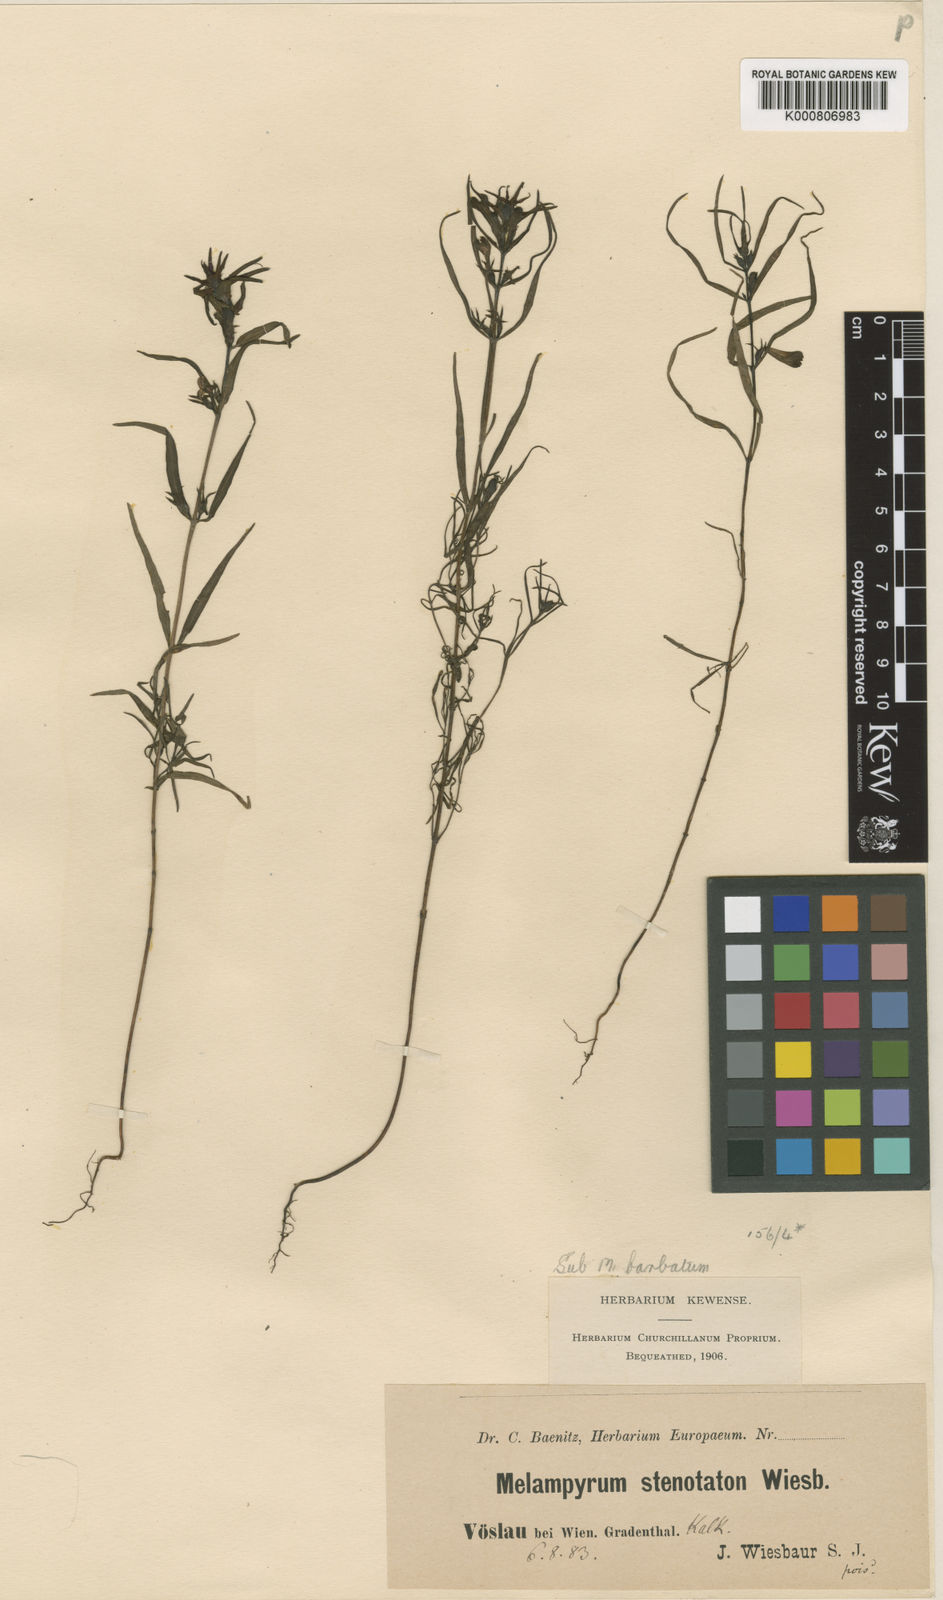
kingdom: Plantae
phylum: Tracheophyta
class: Magnoliopsida
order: Lamiales
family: Orobanchaceae
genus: Melampyrum
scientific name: Melampyrum subalpinum
